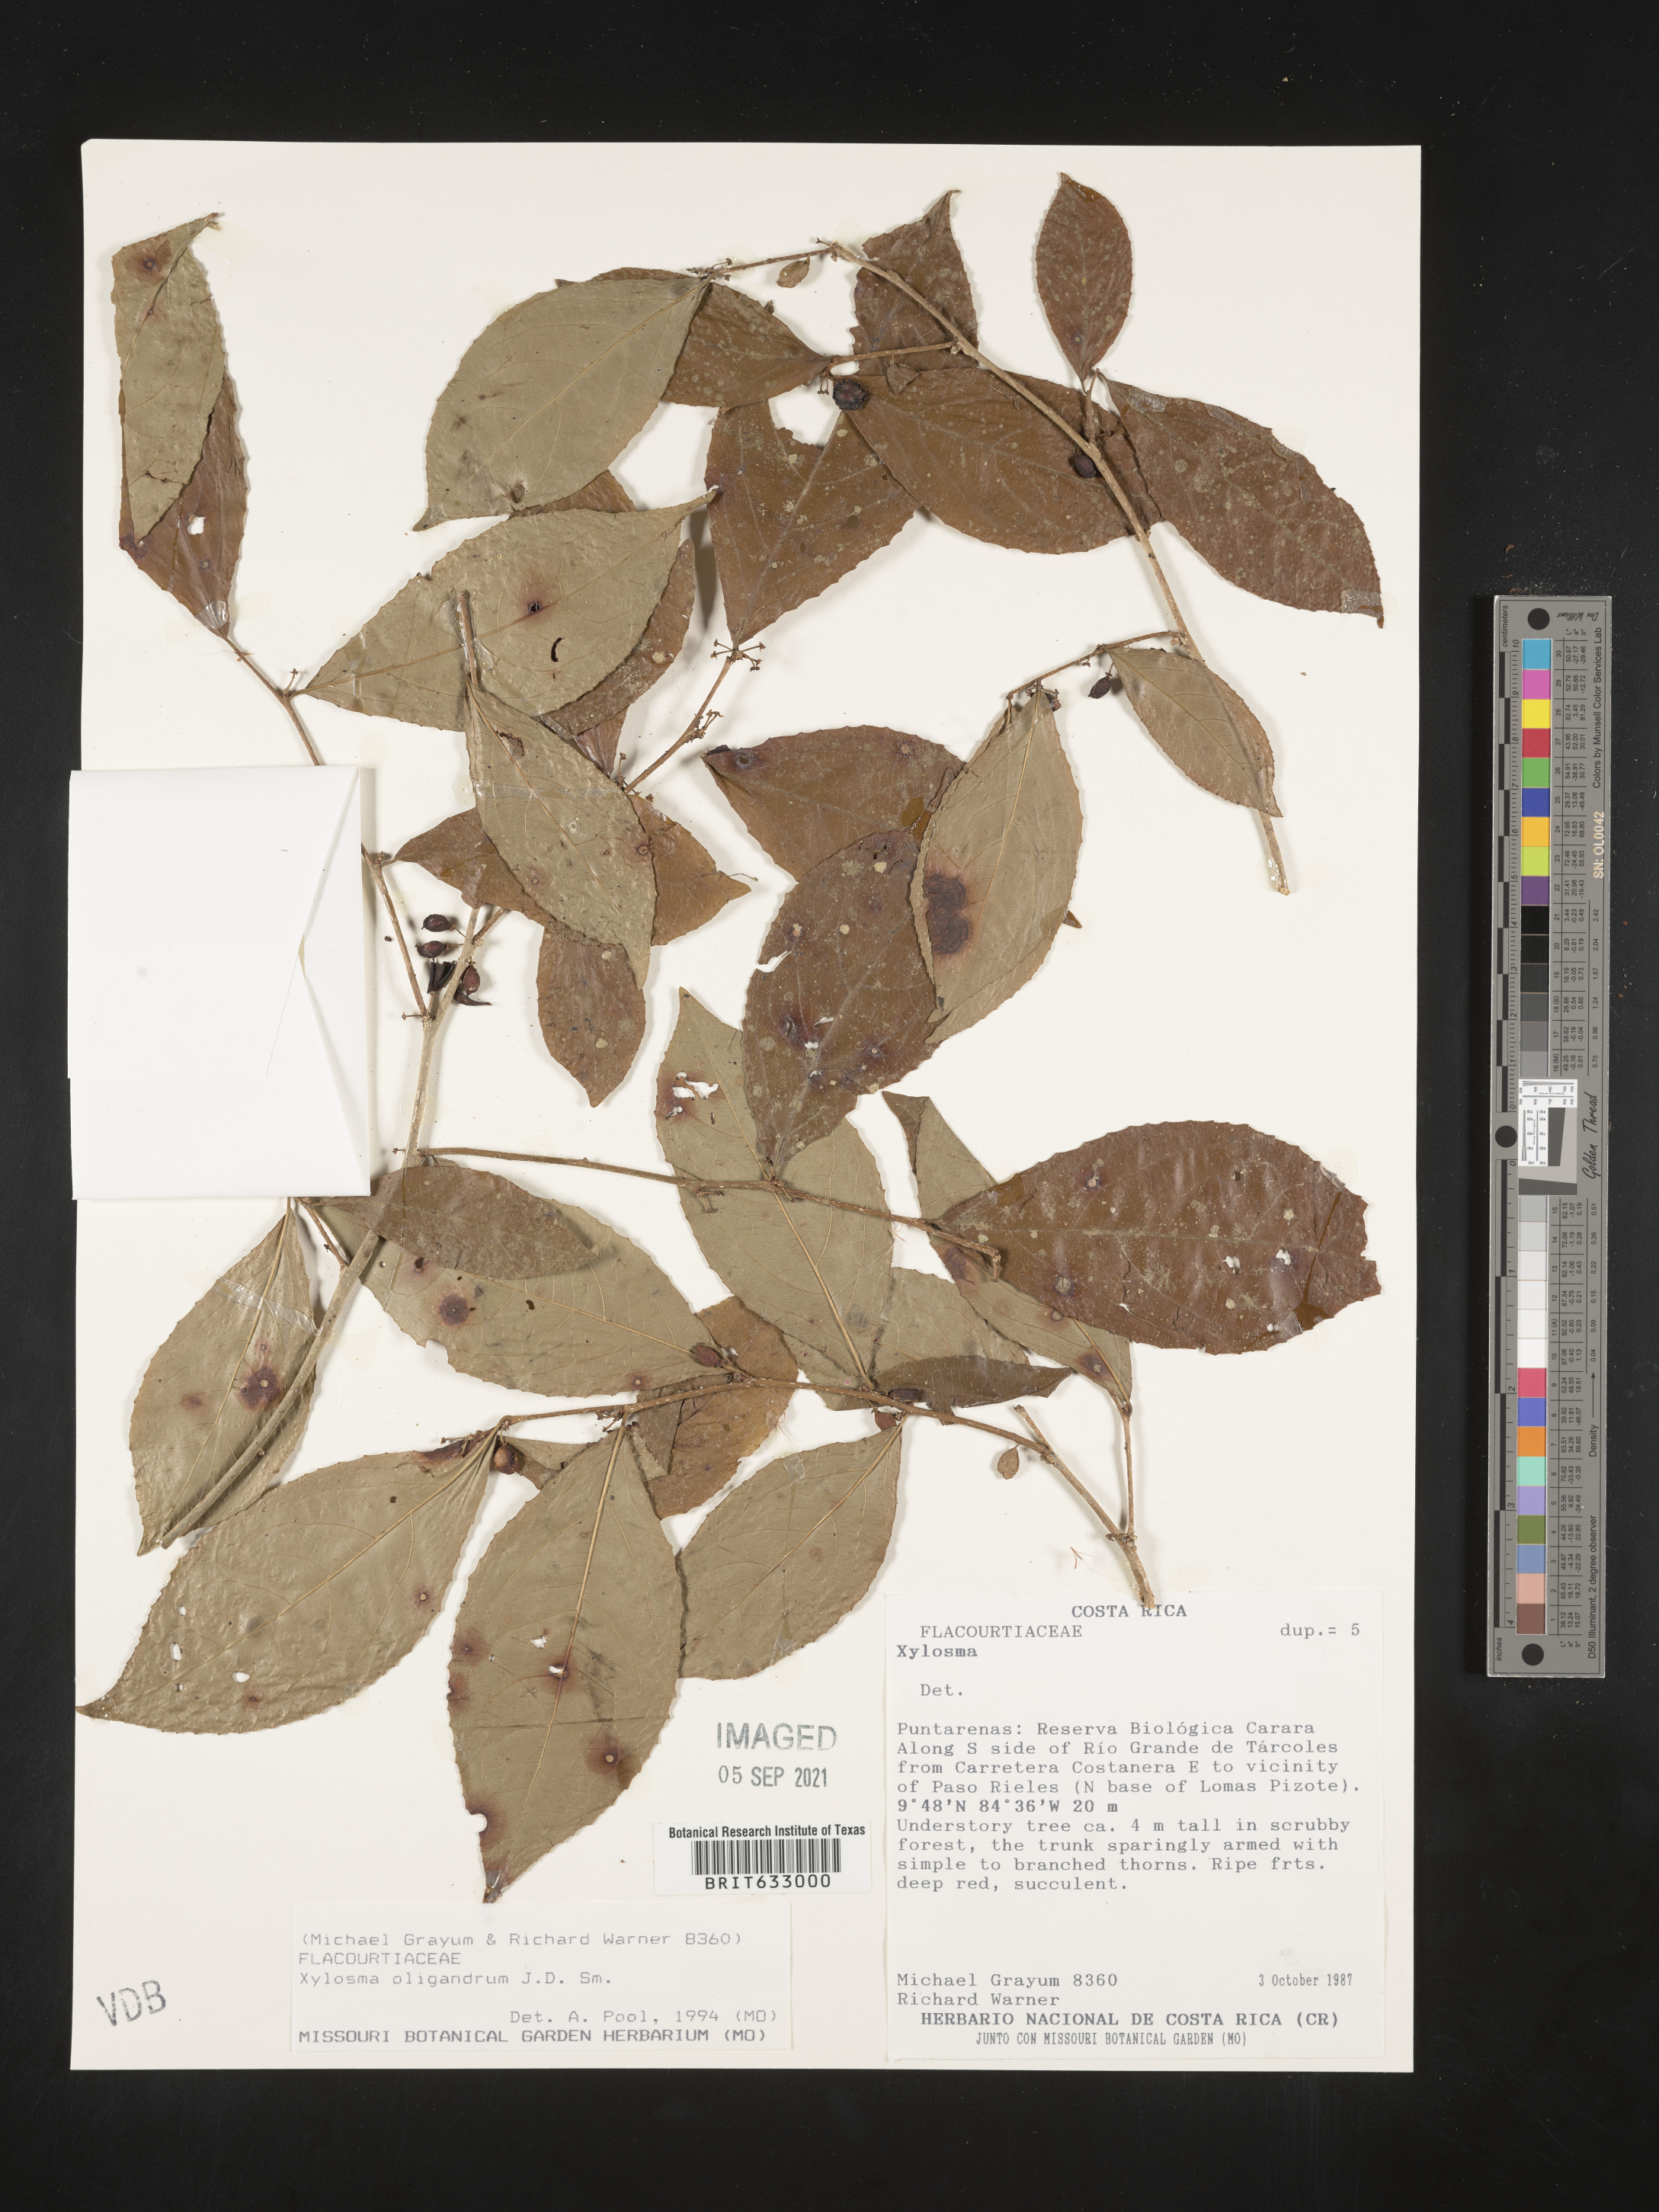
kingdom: Plantae
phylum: Tracheophyta
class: Magnoliopsida
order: Malpighiales
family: Salicaceae
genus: Xylosma
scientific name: Xylosma
